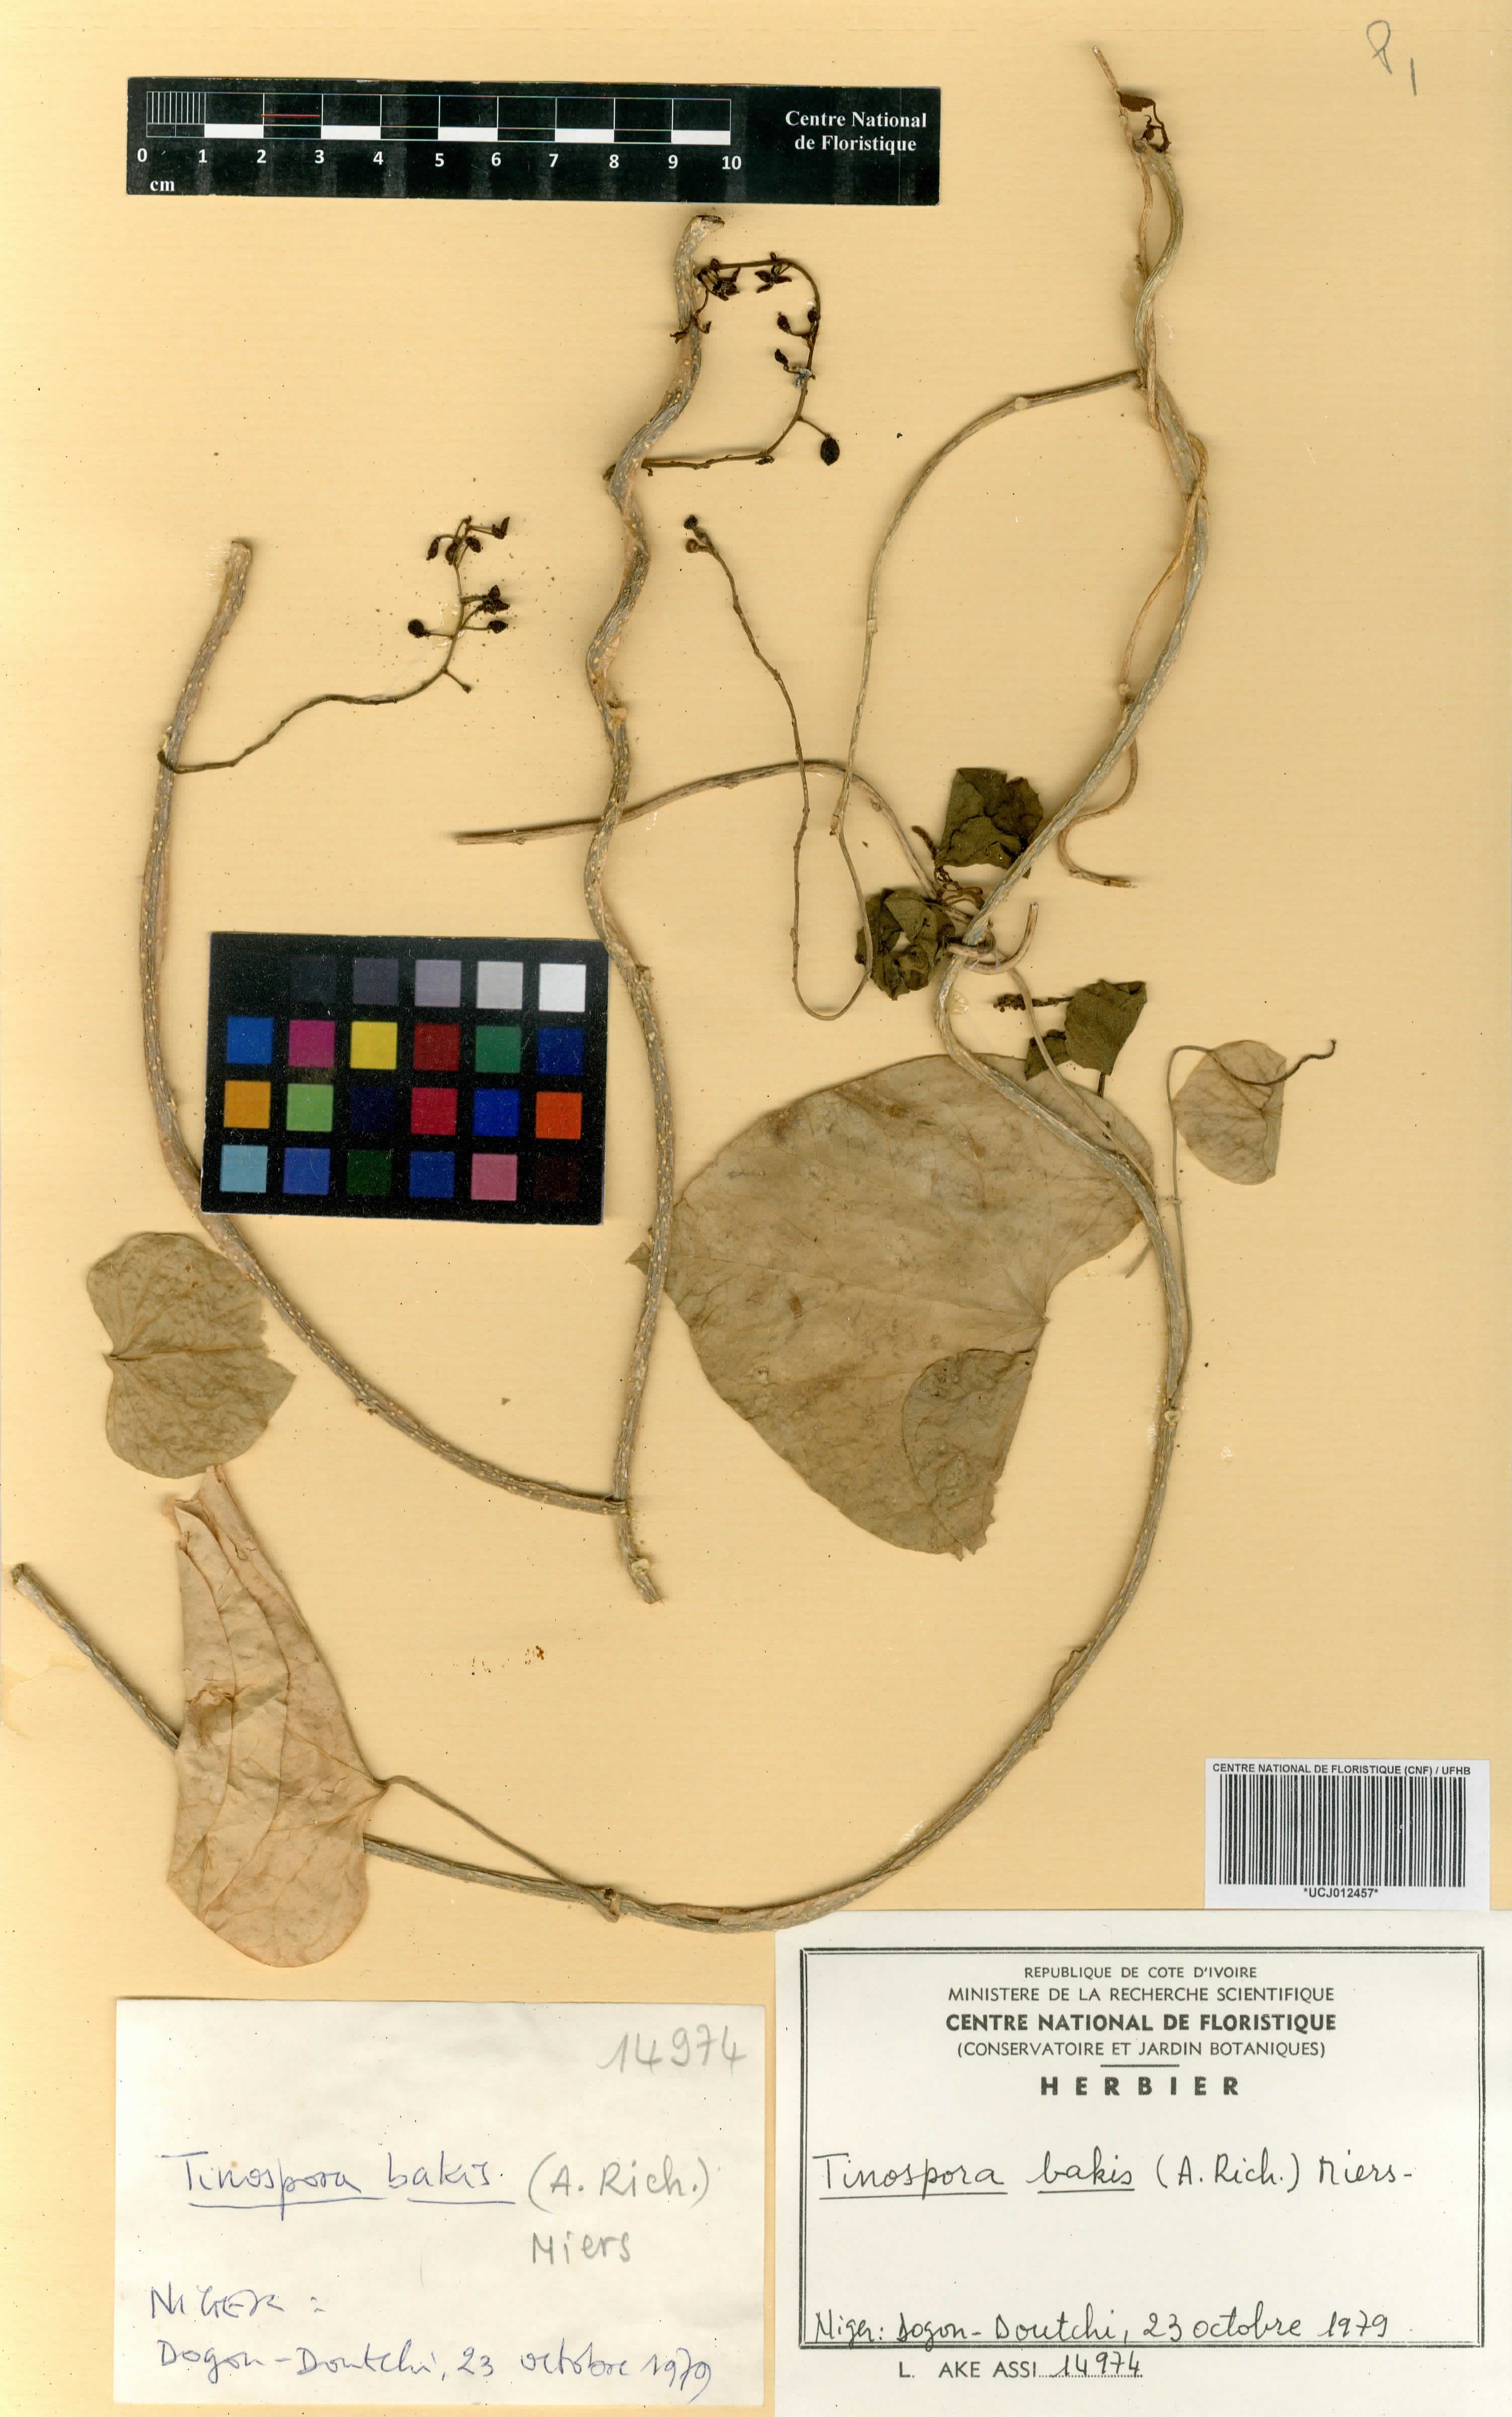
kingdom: Plantae
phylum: Tracheophyta
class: Magnoliopsida
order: Ranunculales
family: Menispermaceae
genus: Tinospora
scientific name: Tinospora bakis
